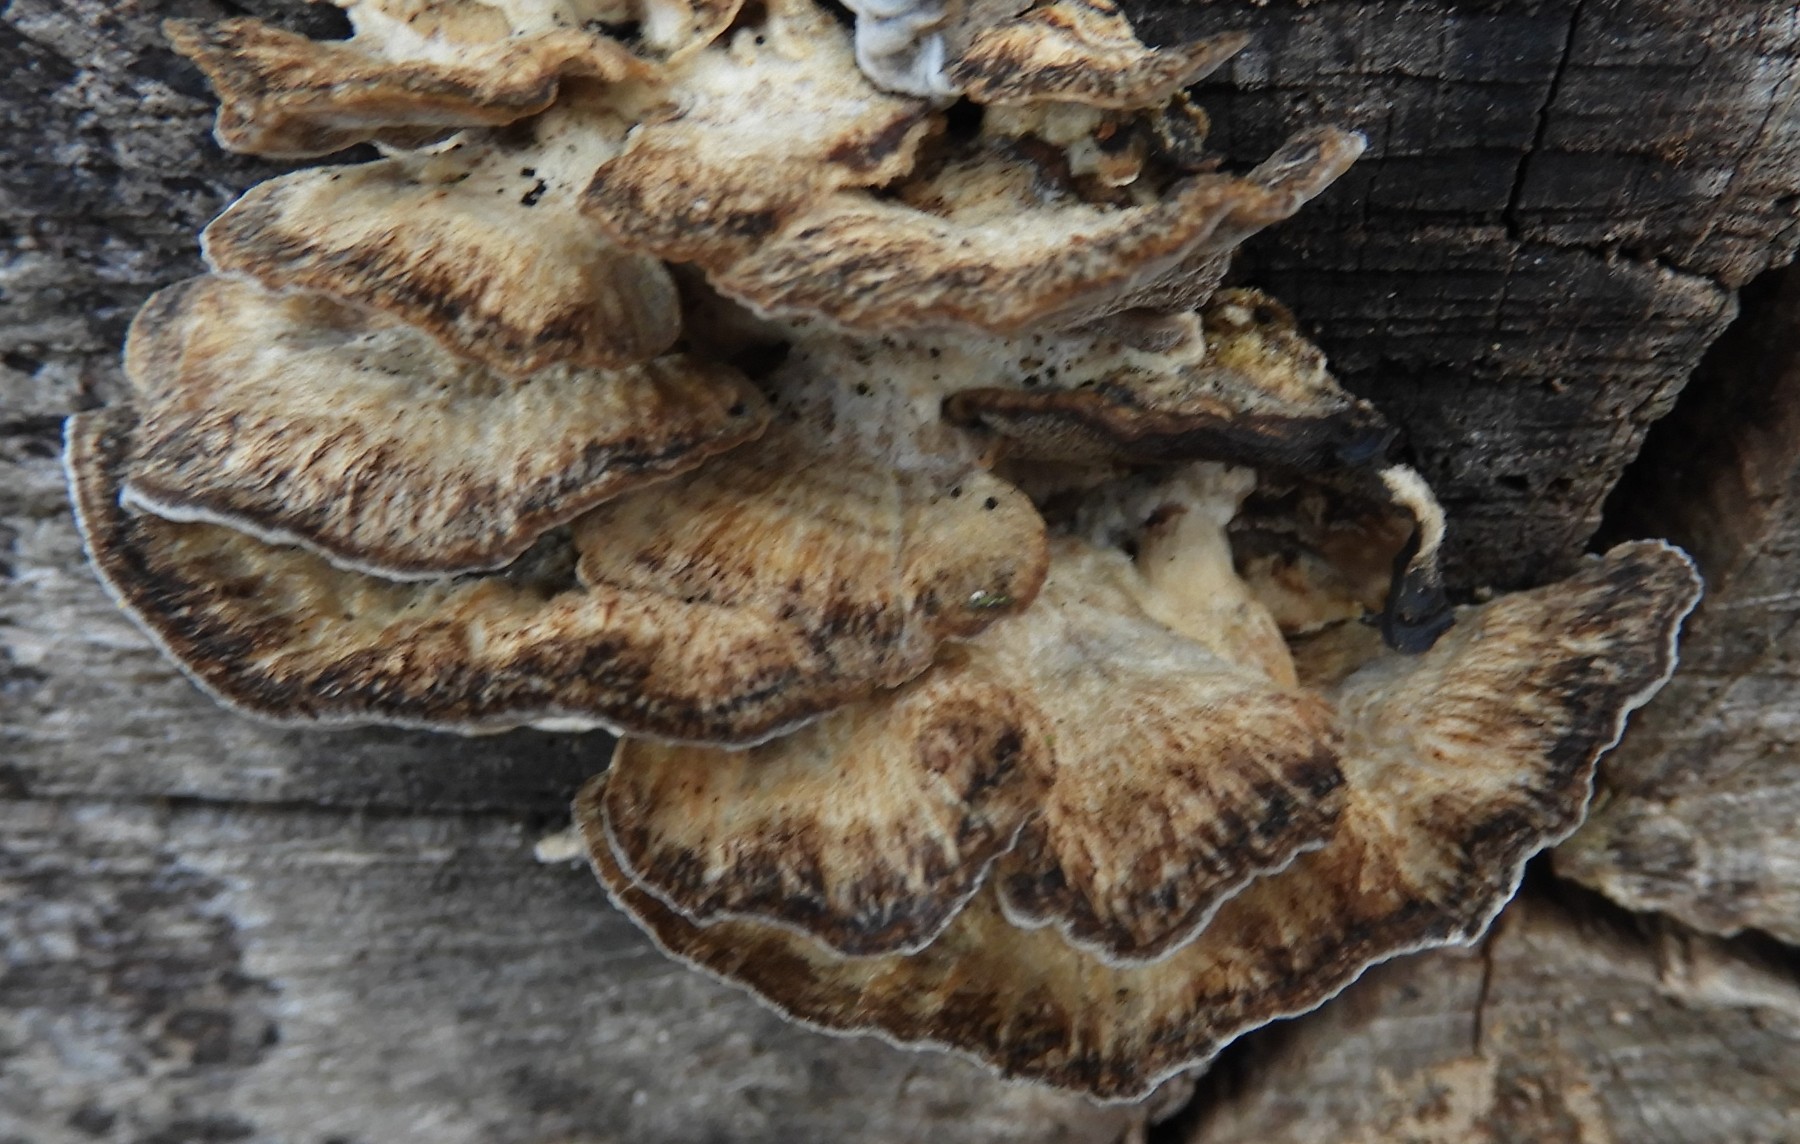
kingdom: Fungi
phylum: Basidiomycota
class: Agaricomycetes
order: Polyporales
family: Phanerochaetaceae
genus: Bjerkandera
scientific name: Bjerkandera adusta
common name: sveden sodporesvamp
